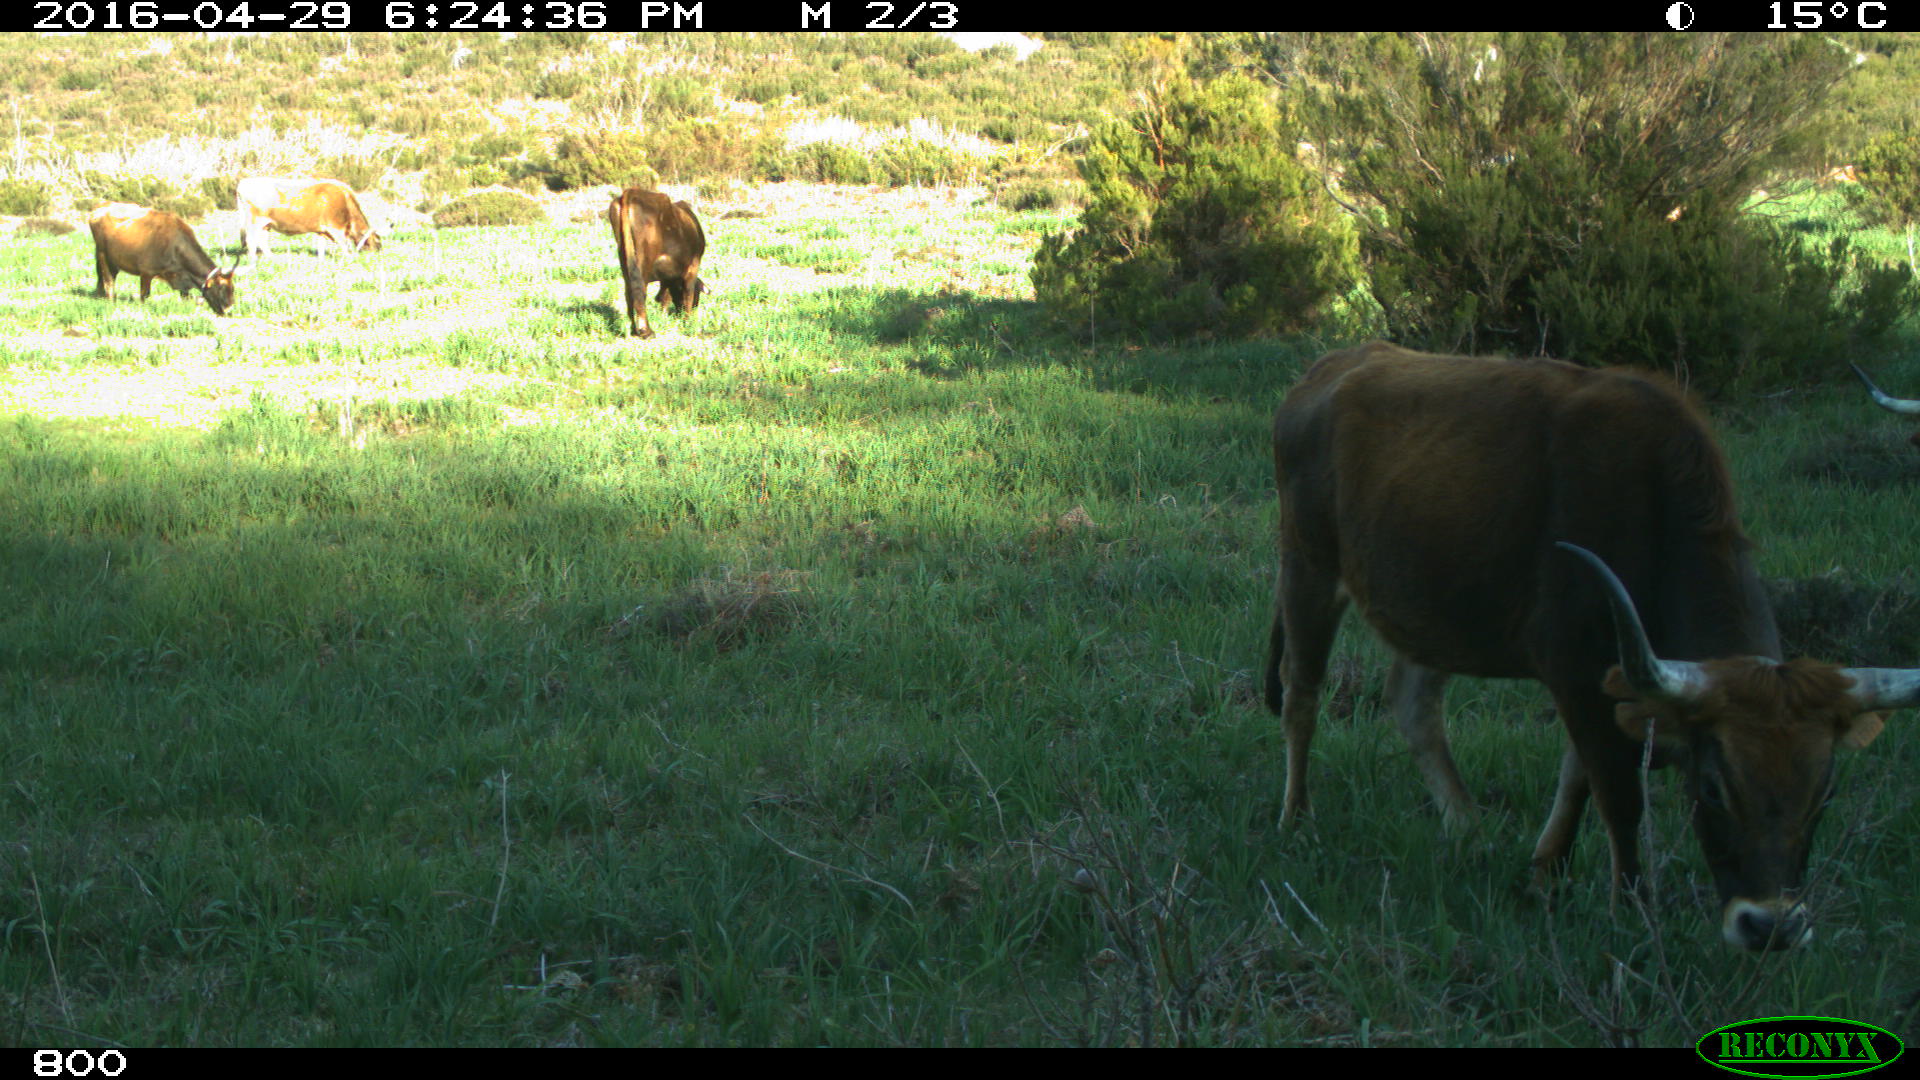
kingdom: Animalia
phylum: Chordata
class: Mammalia
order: Artiodactyla
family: Bovidae
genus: Bos
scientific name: Bos taurus
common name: Domesticated cattle
